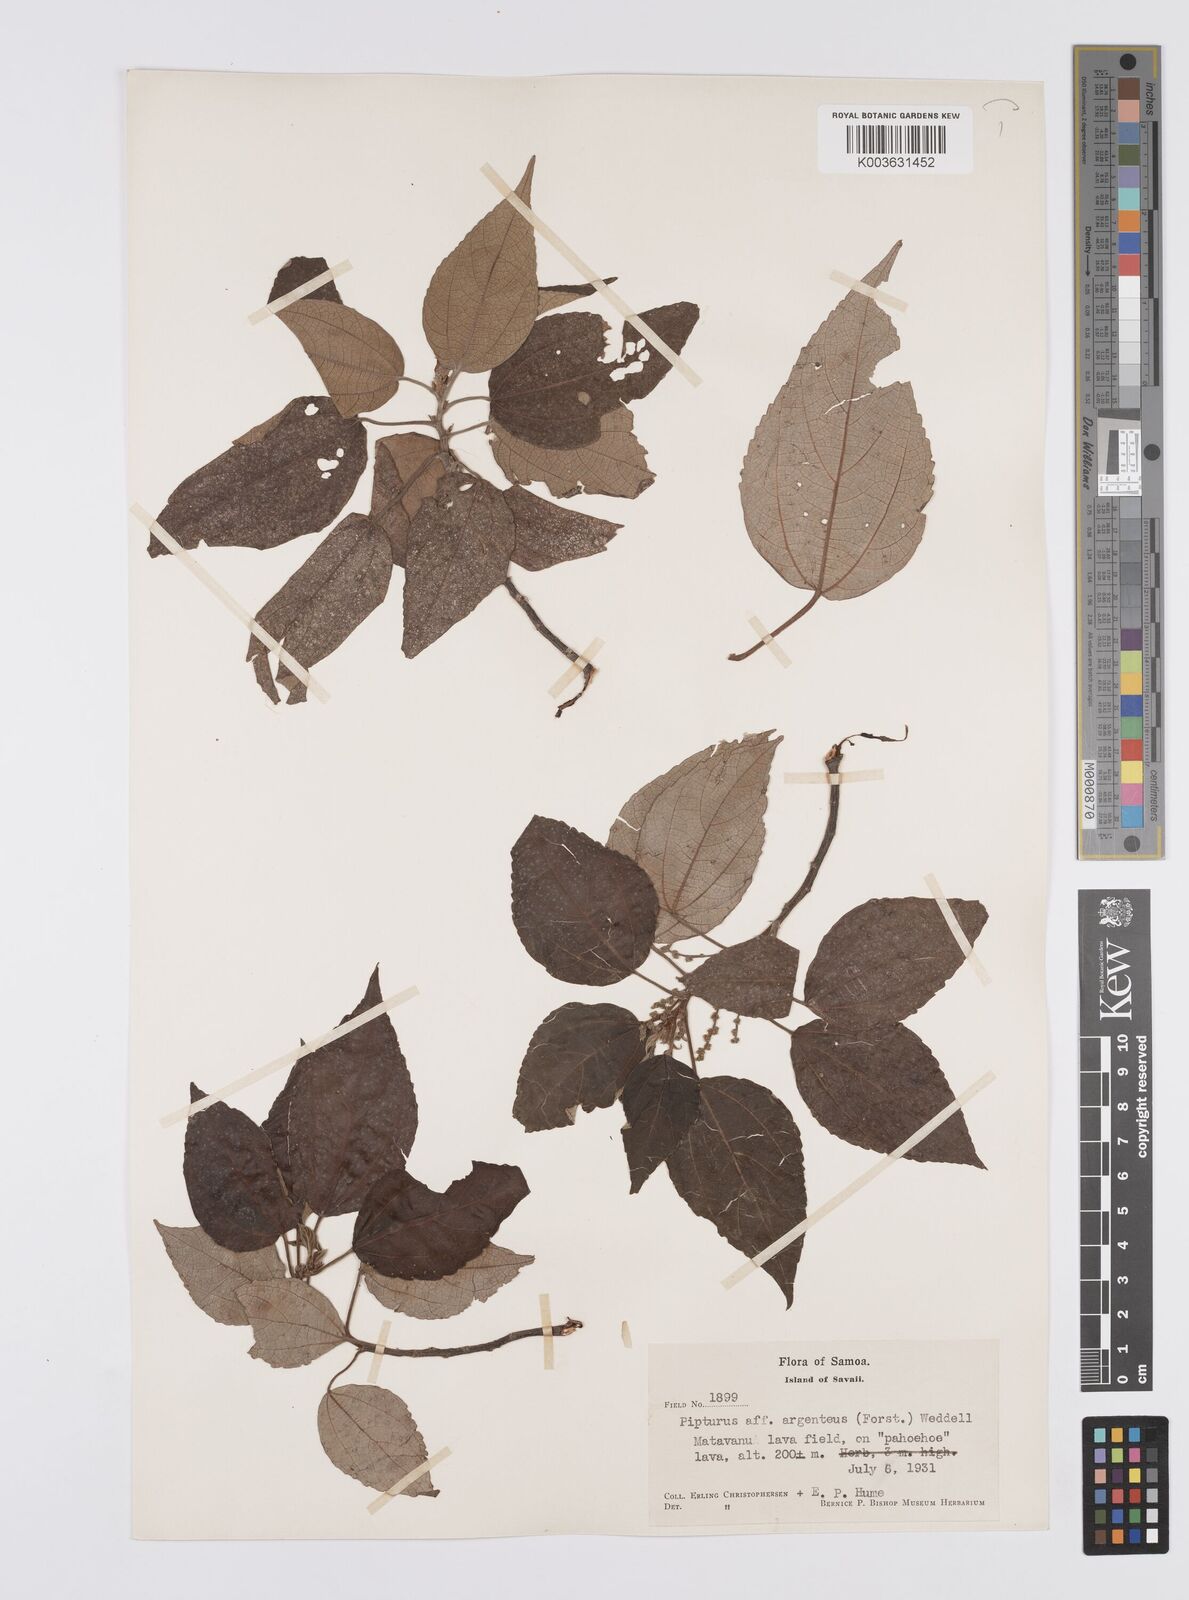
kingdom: Plantae
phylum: Tracheophyta
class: Magnoliopsida
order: Rosales
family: Urticaceae
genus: Pipturus
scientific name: Pipturus argenteus
